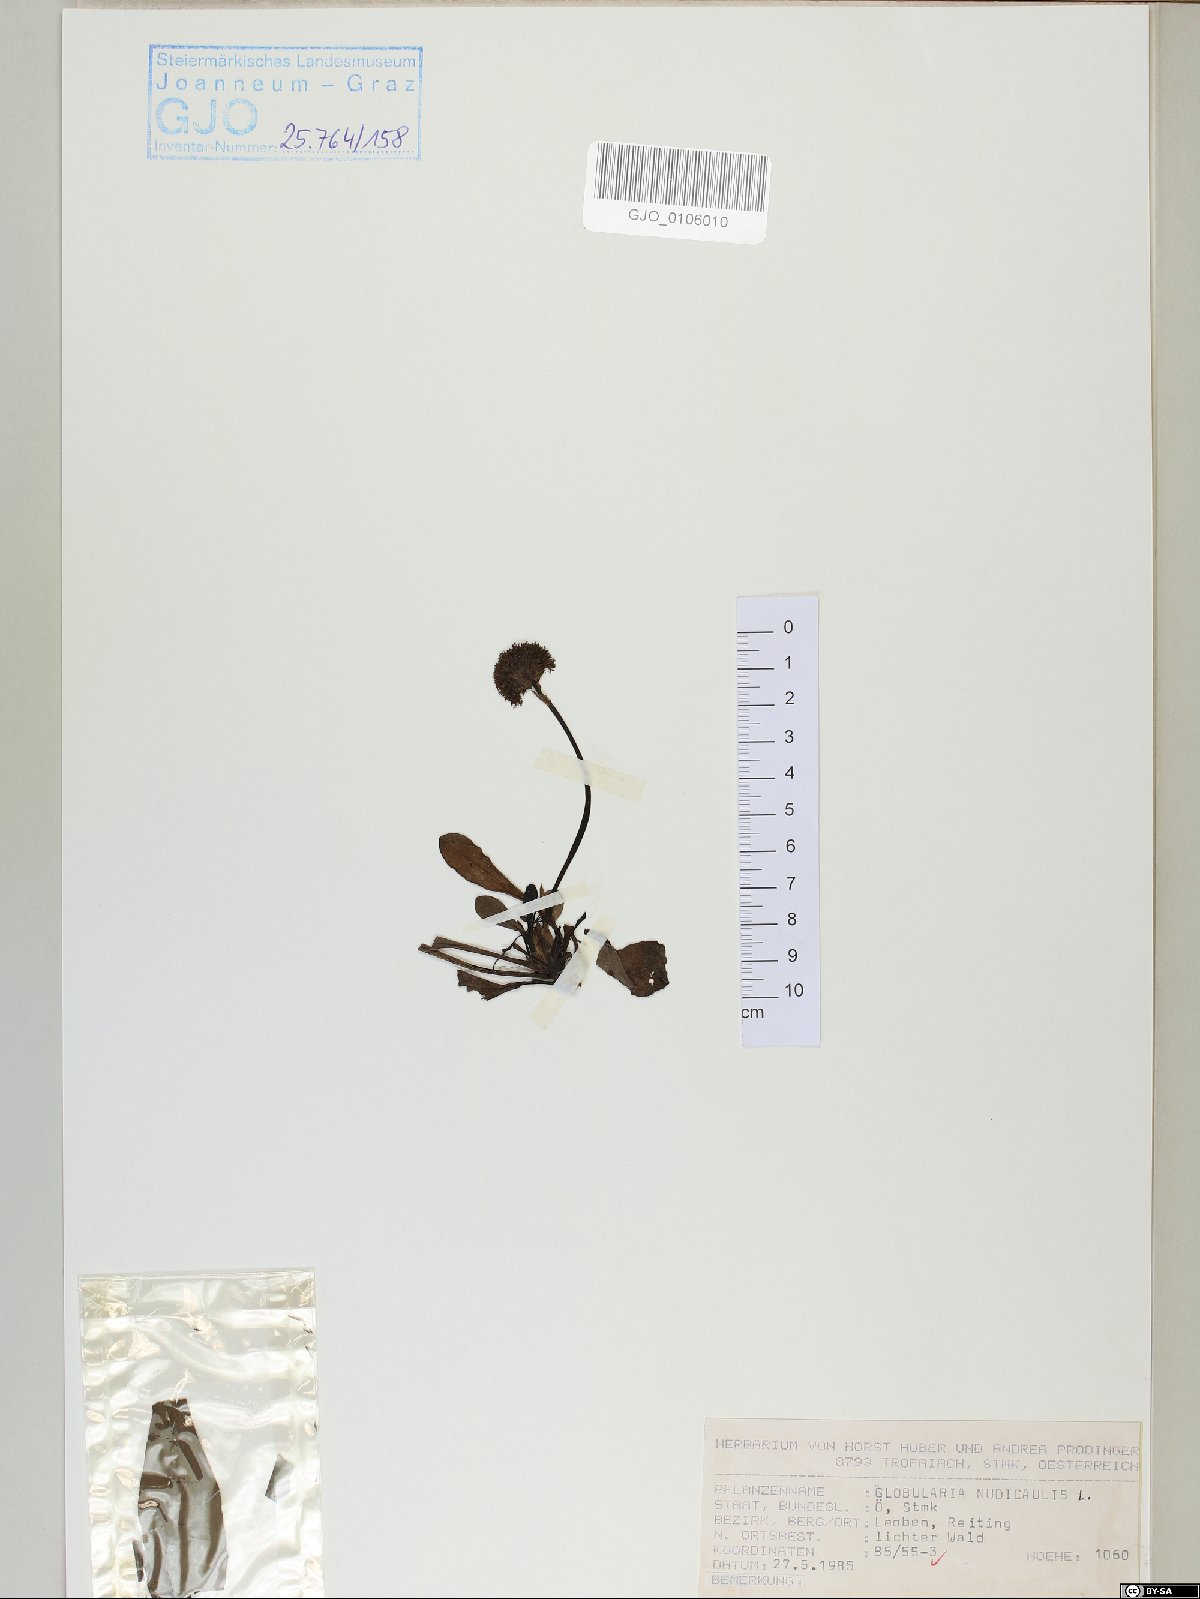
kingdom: Plantae
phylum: Tracheophyta
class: Magnoliopsida
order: Lamiales
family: Plantaginaceae
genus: Globularia
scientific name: Globularia nudicaulis
